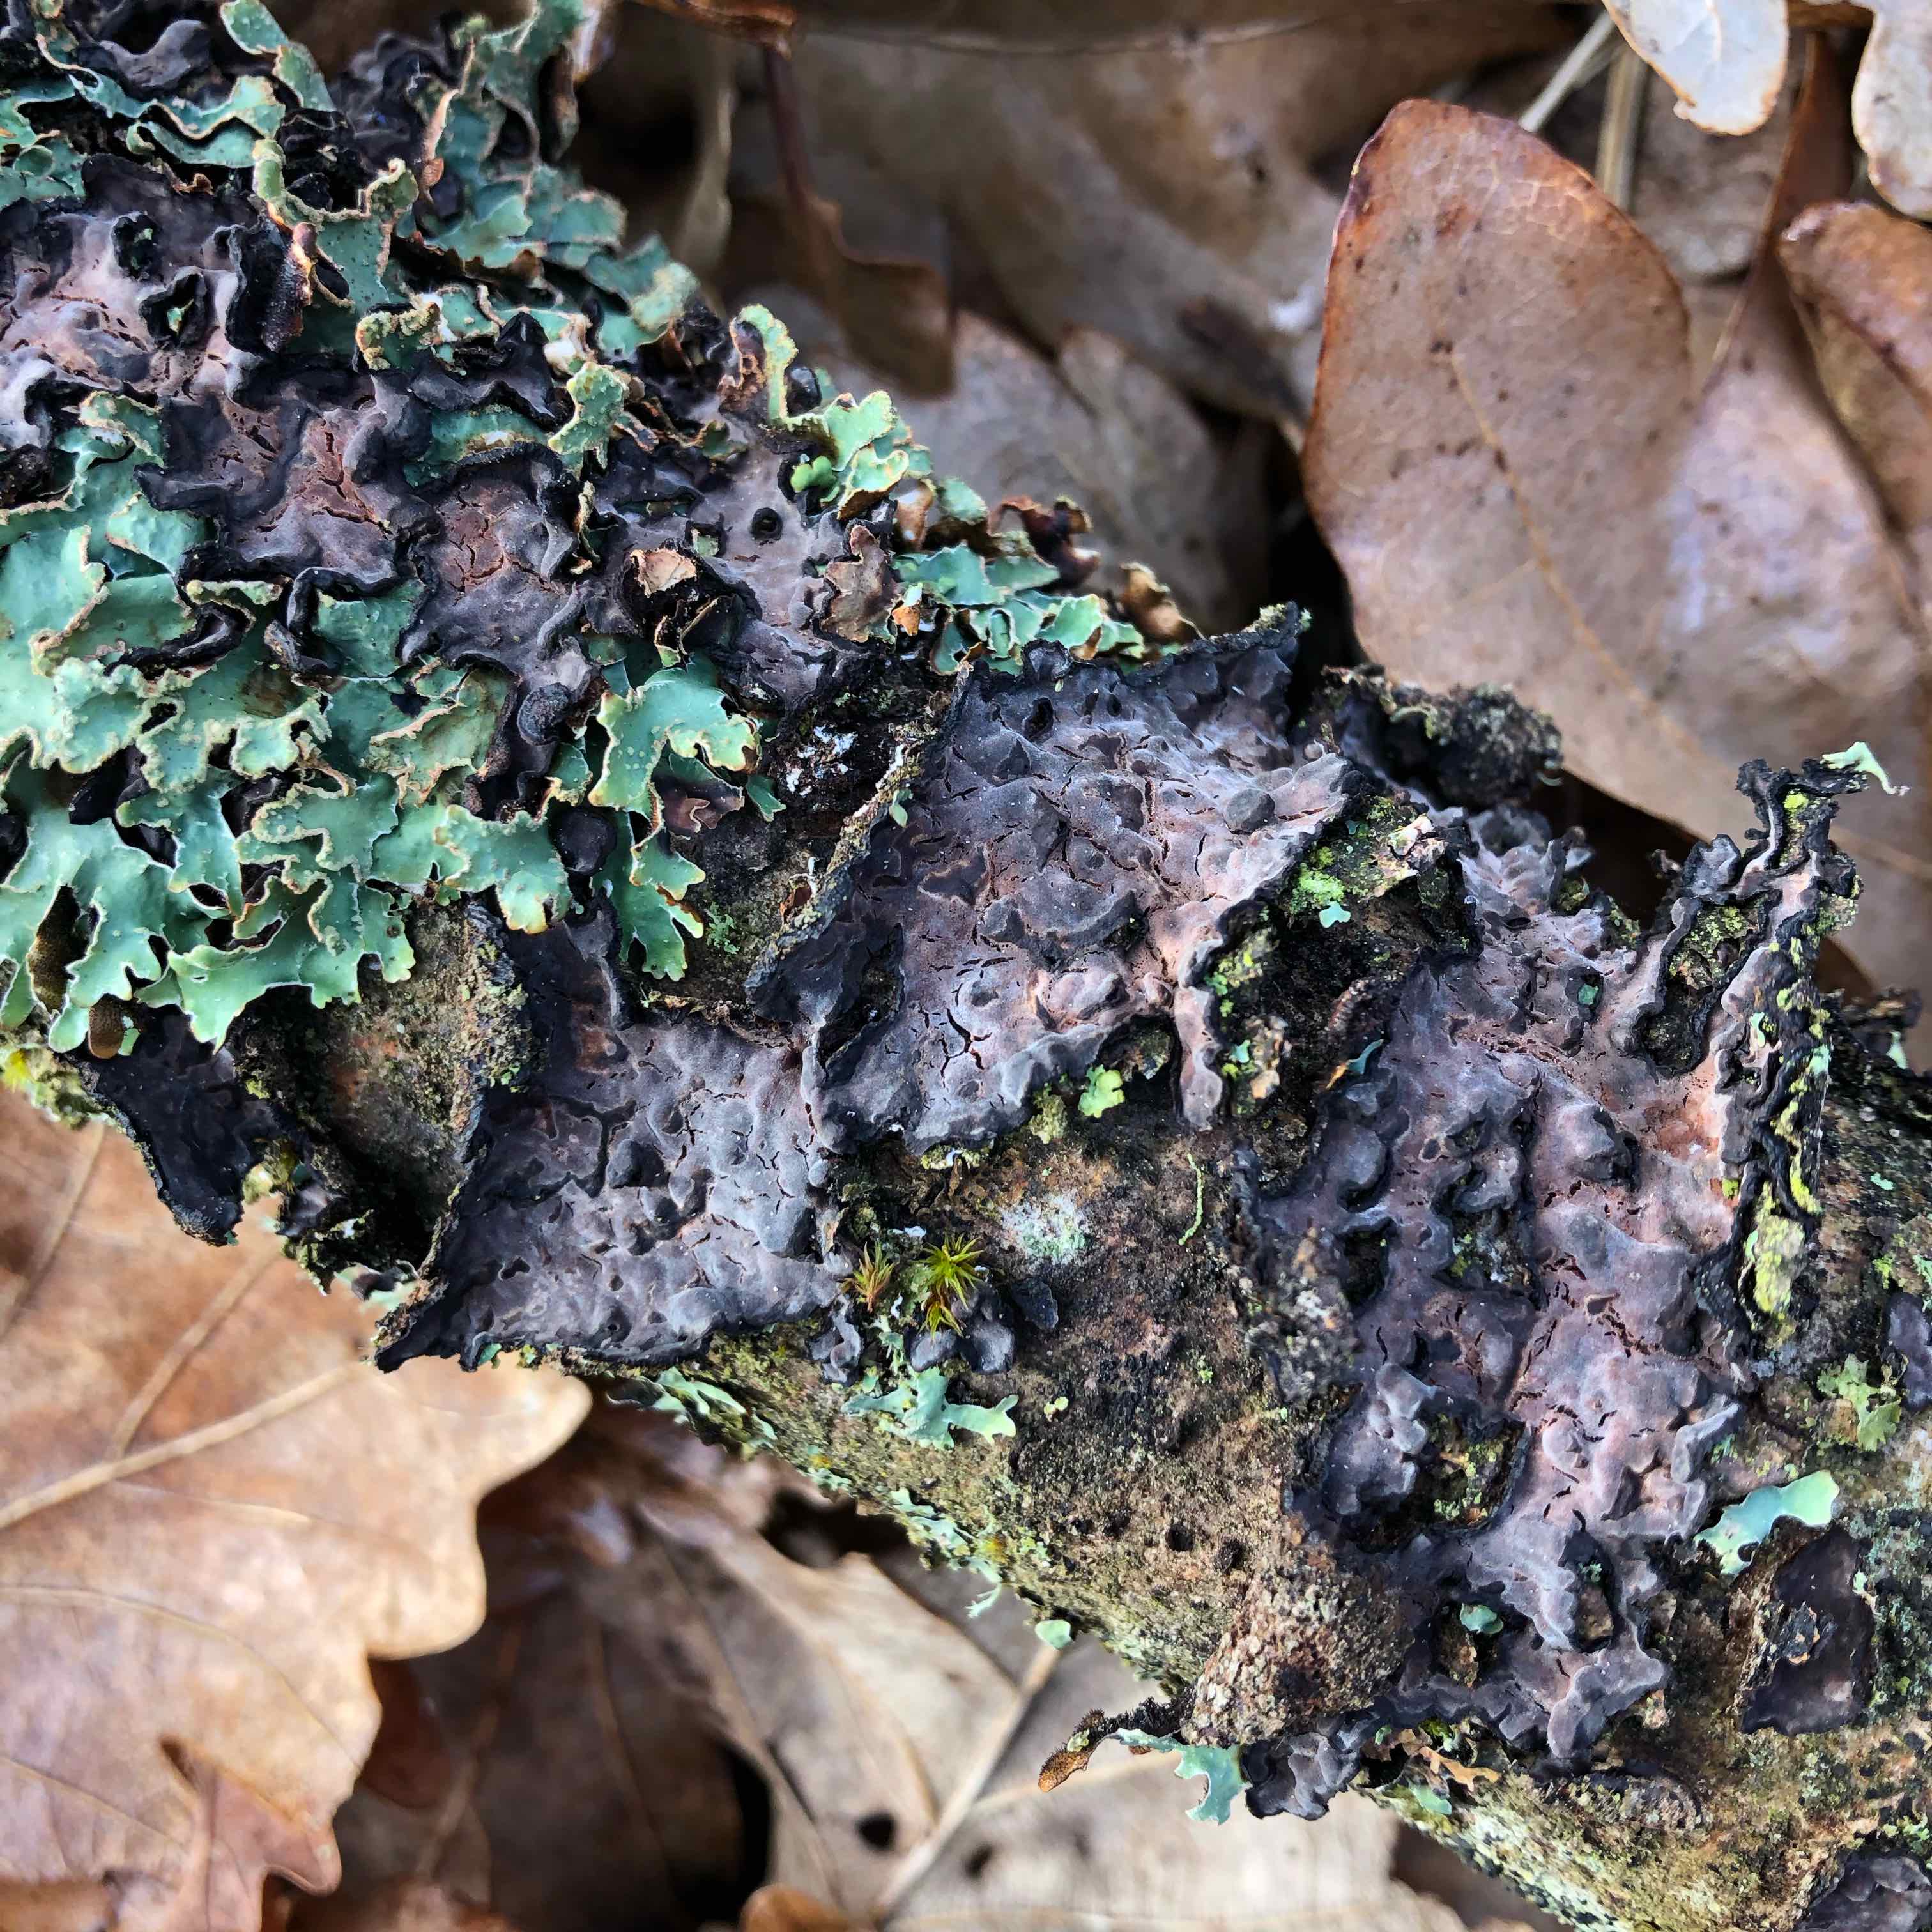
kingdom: Fungi
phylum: Basidiomycota
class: Agaricomycetes
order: Russulales
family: Peniophoraceae
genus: Peniophora
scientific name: Peniophora quercina
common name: ege-voksskind
